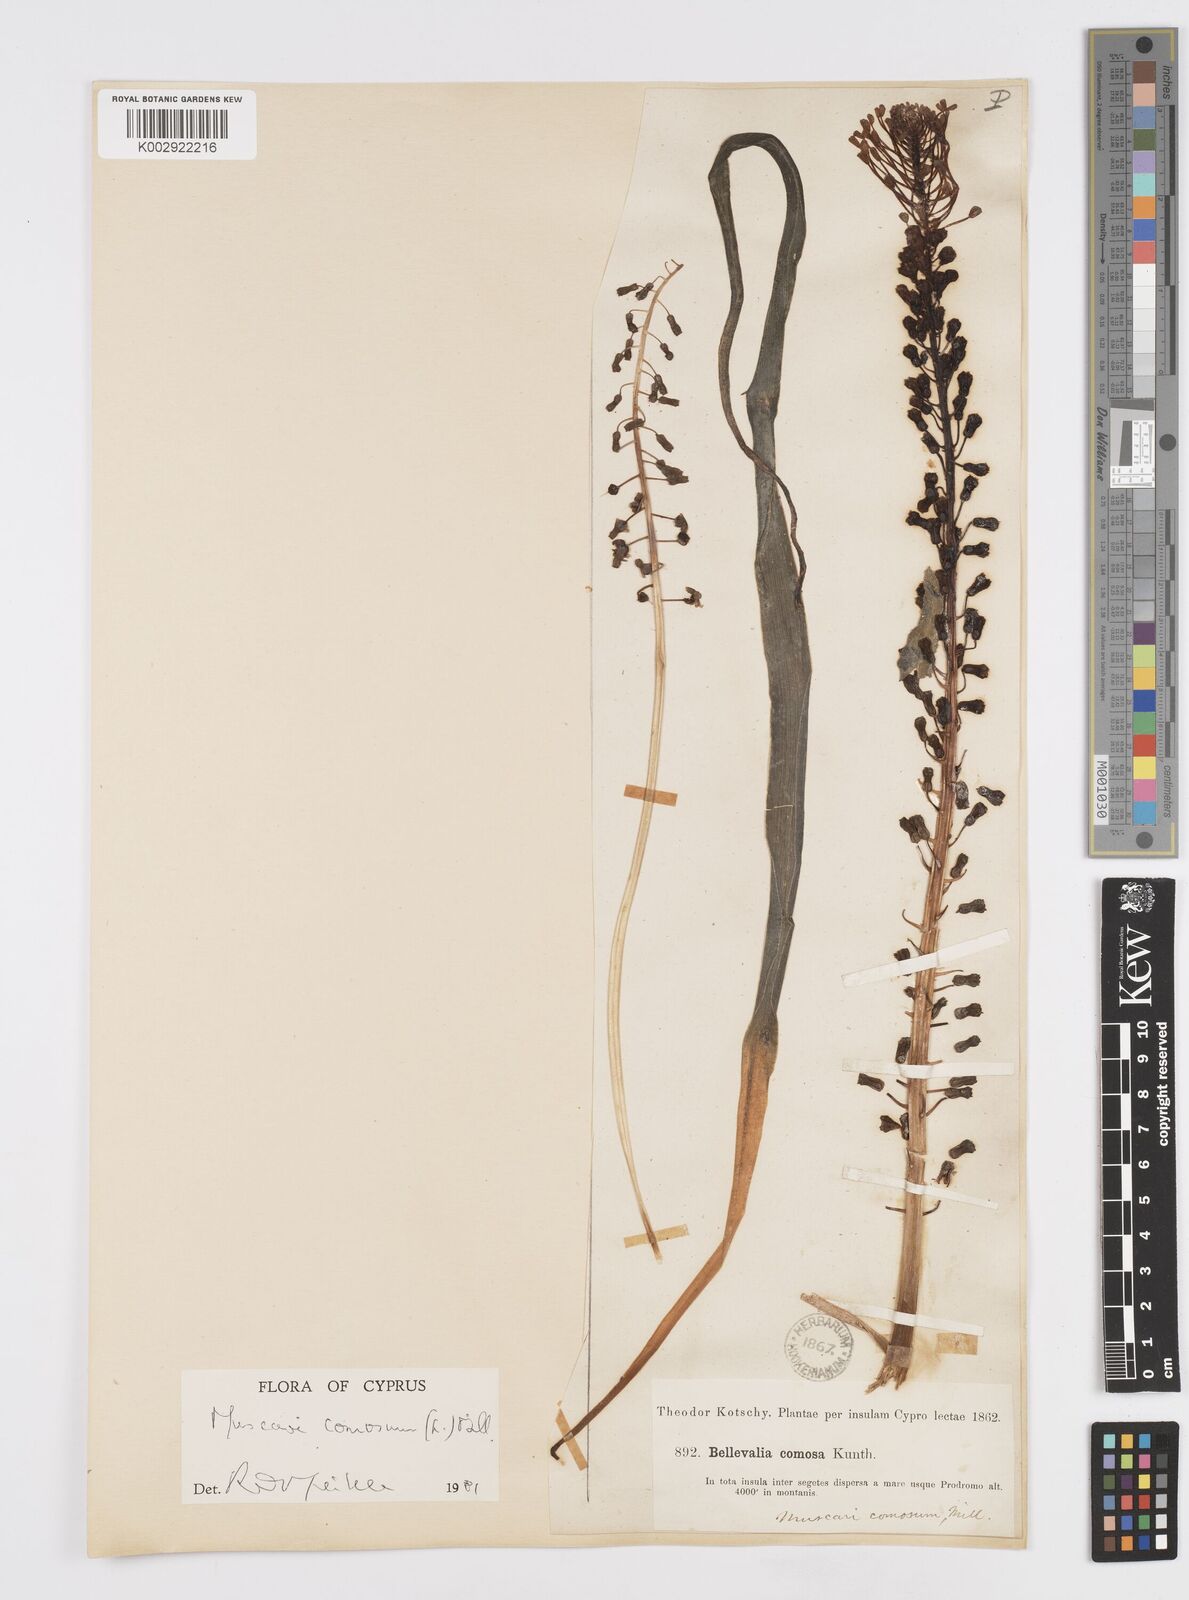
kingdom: Plantae
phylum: Tracheophyta
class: Liliopsida
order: Asparagales
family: Asparagaceae
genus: Muscari
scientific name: Muscari comosum
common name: Tassel hyacinth
